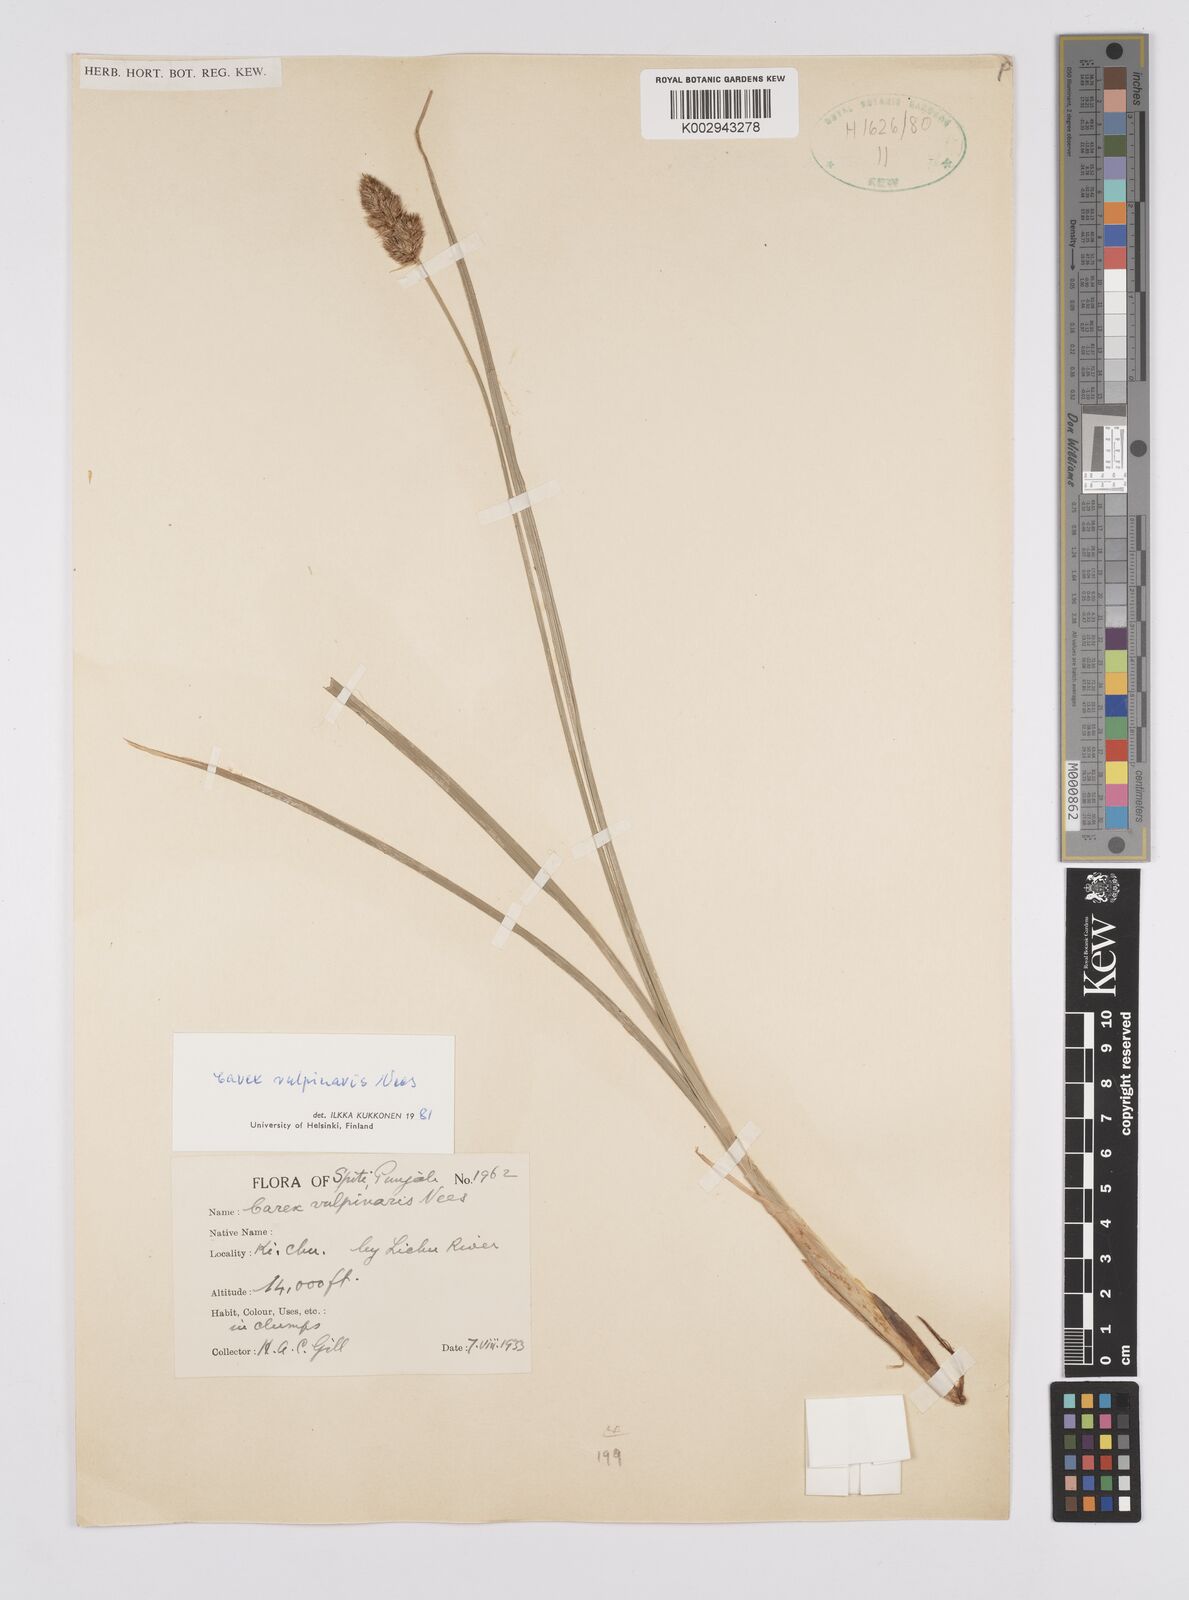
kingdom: Plantae
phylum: Tracheophyta
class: Liliopsida
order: Poales
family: Cyperaceae
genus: Carex
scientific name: Carex vulpinaris
